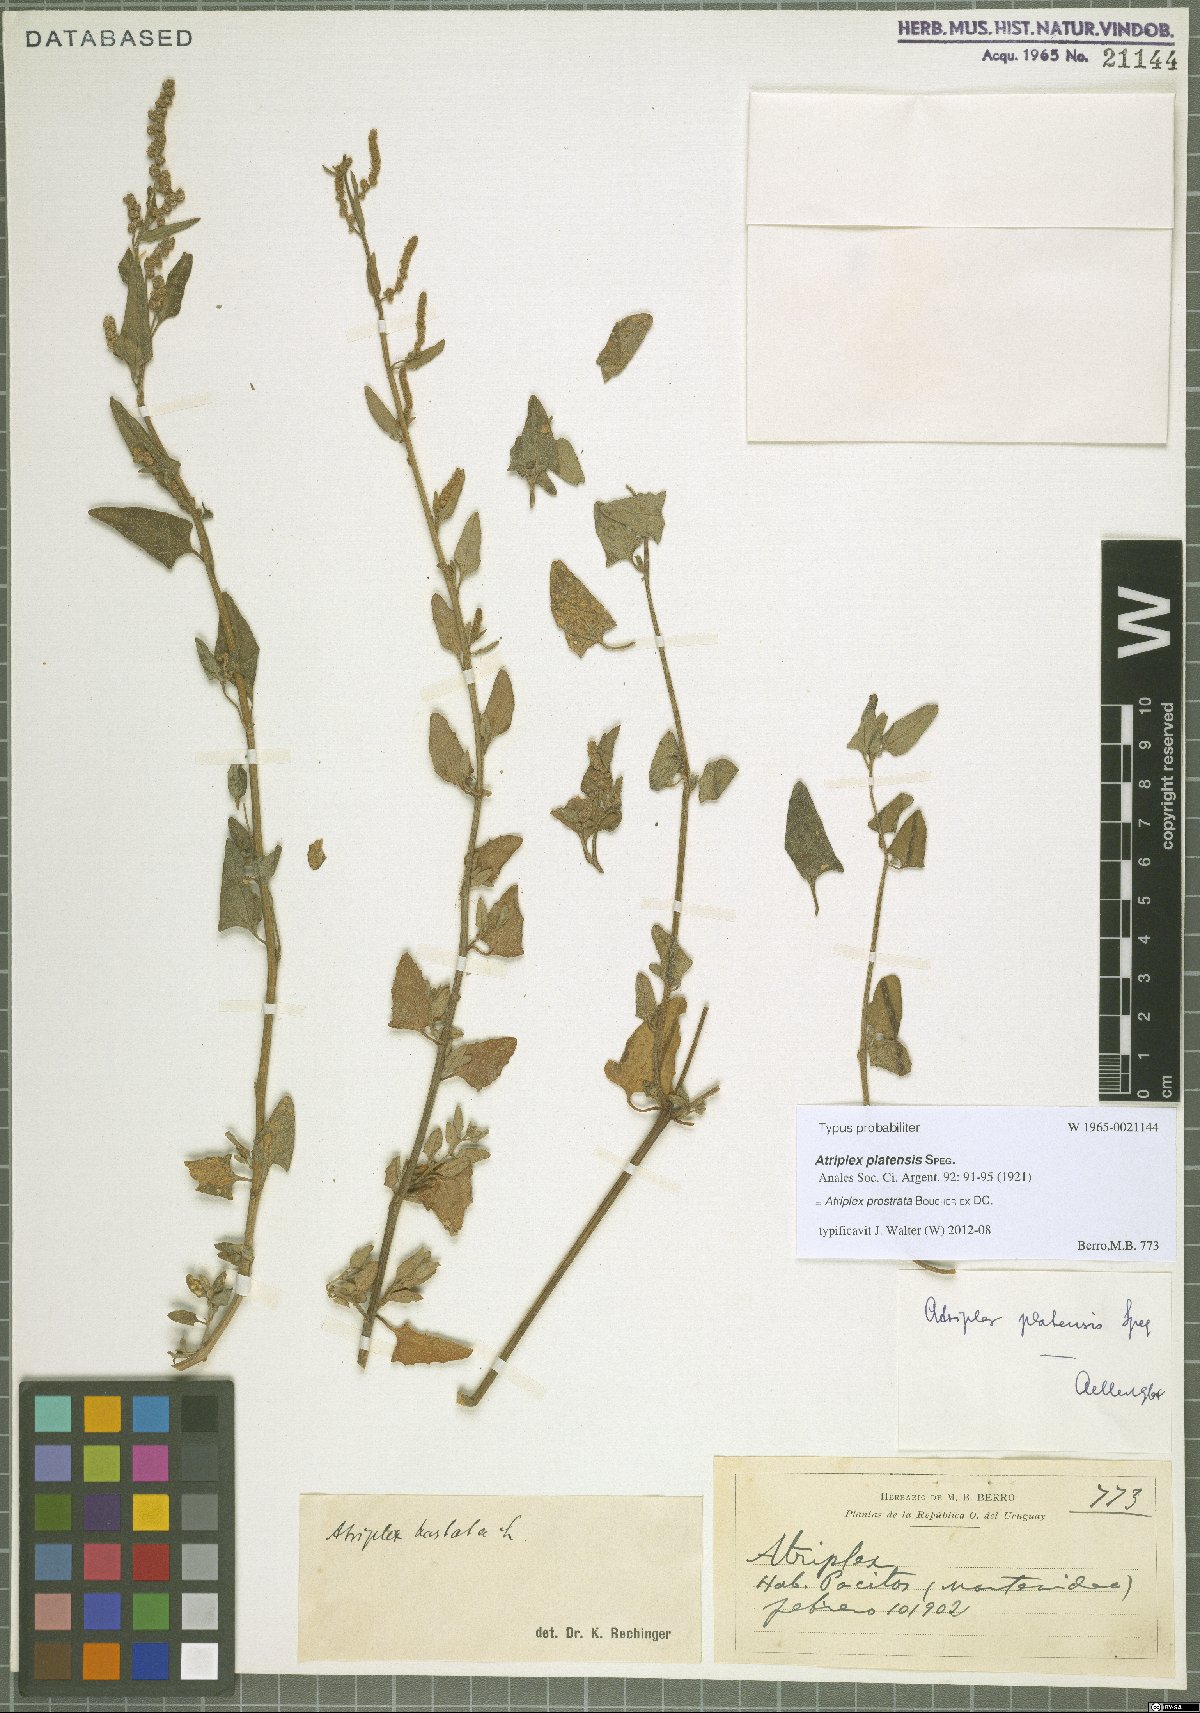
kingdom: Plantae
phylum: Tracheophyta
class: Magnoliopsida
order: Caryophyllales
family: Amaranthaceae
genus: Atriplex
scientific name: Atriplex prostrata
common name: Spear-leaved orache
